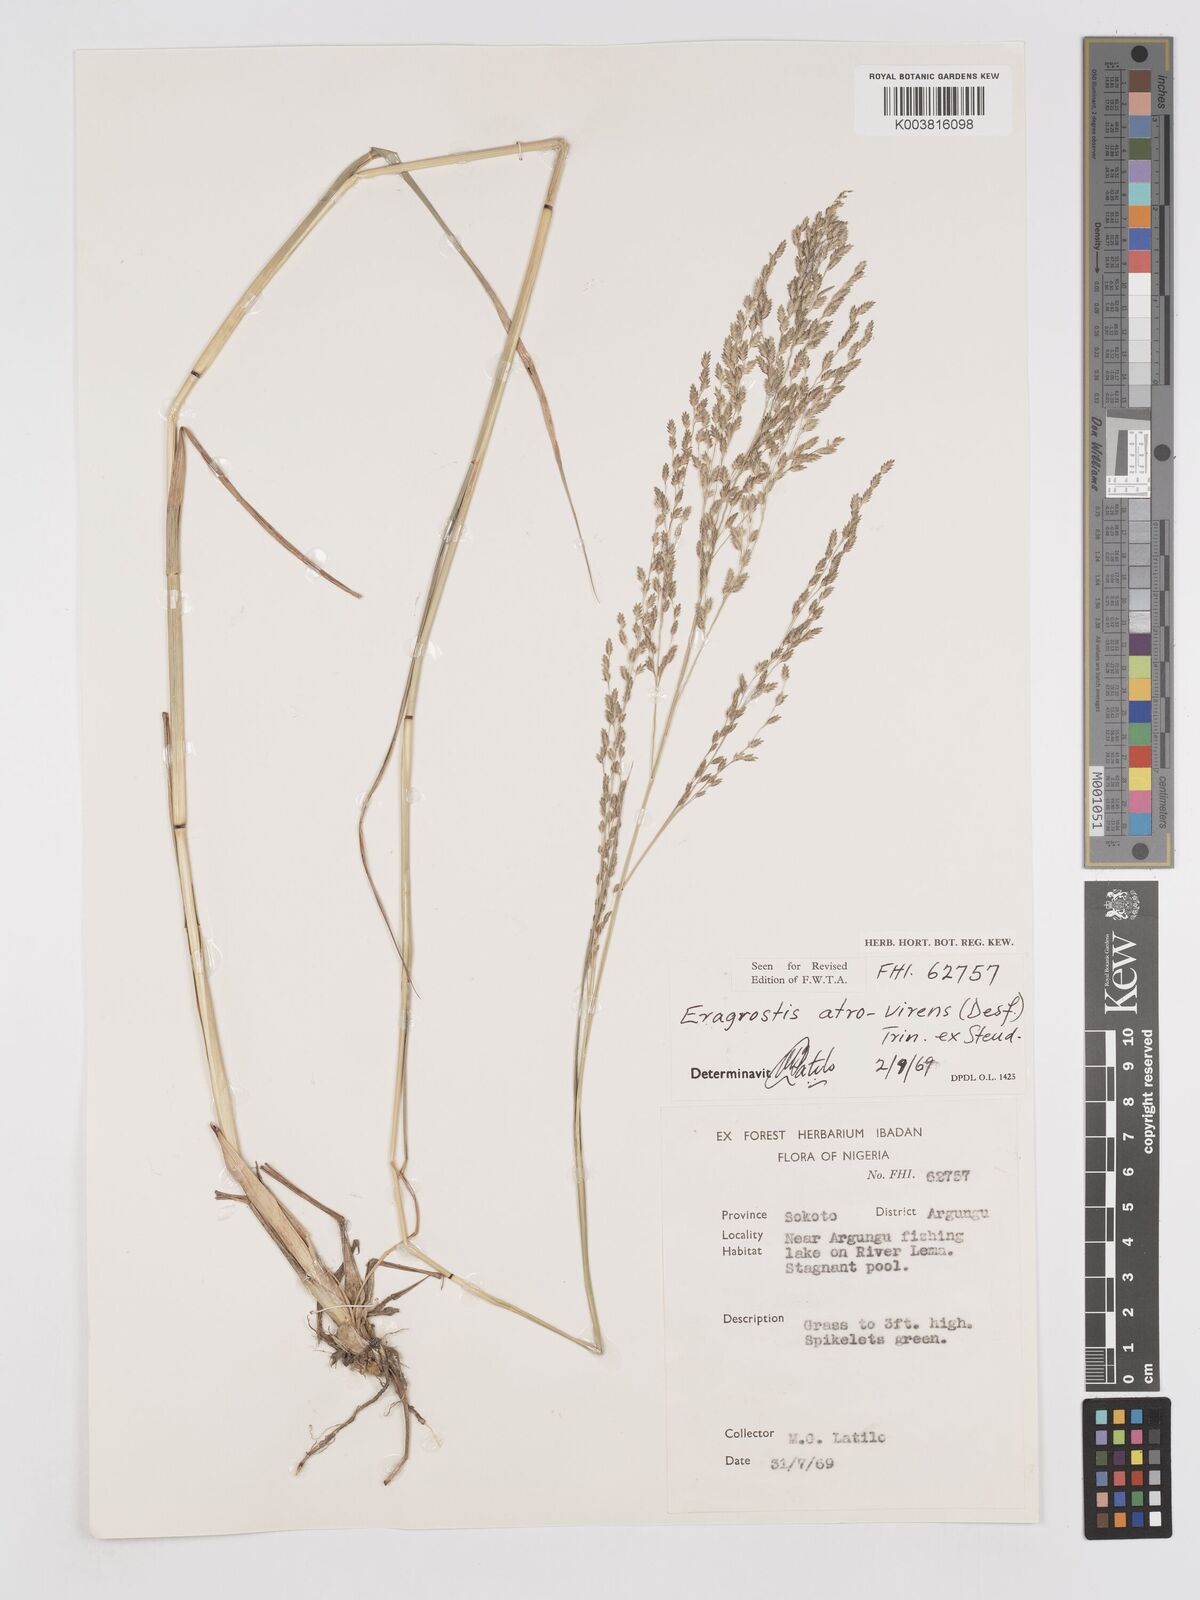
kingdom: Plantae
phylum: Tracheophyta
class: Liliopsida
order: Poales
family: Poaceae
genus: Eragrostis
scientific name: Eragrostis atrovirens
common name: Thalia lovegrass
